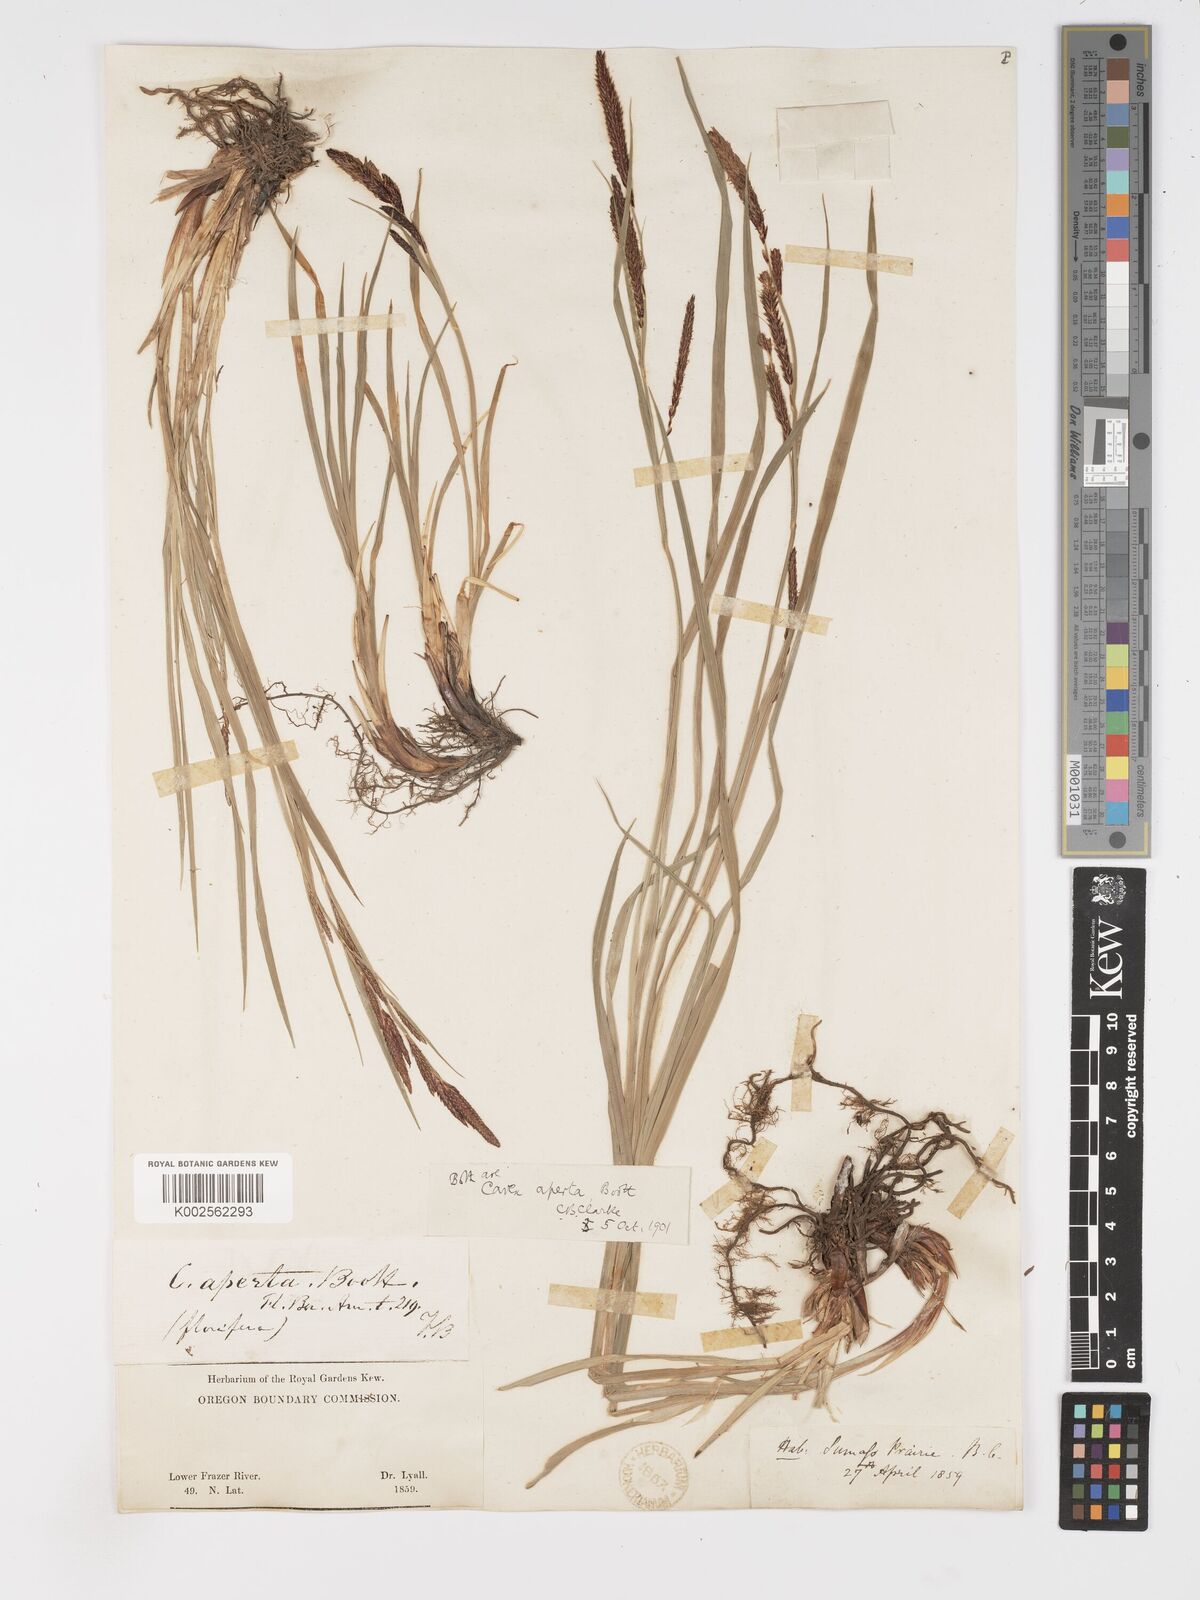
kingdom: Plantae
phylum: Tracheophyta
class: Liliopsida
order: Poales
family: Cyperaceae
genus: Carex
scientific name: Carex aperta
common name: Columbia sedge
